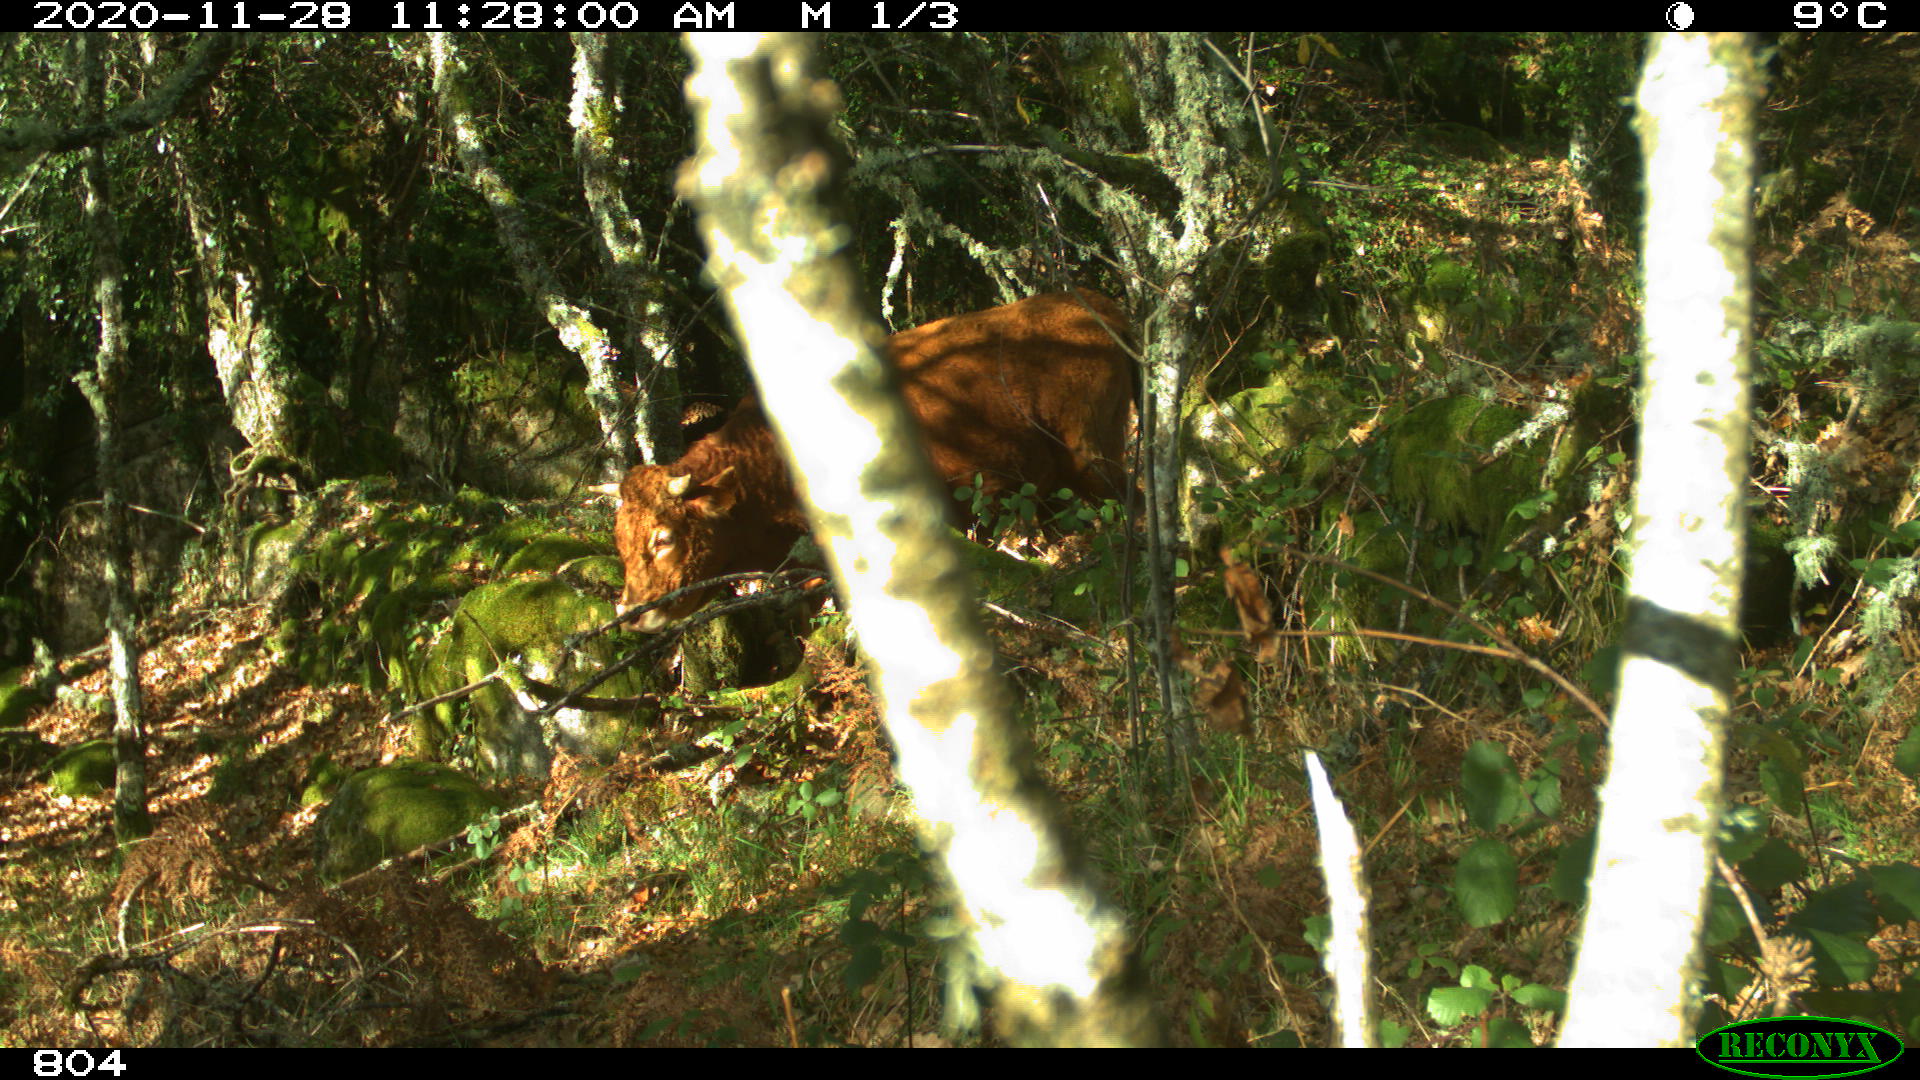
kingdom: Animalia
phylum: Chordata
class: Mammalia
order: Artiodactyla
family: Bovidae
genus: Bos
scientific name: Bos taurus
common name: Domesticated cattle
